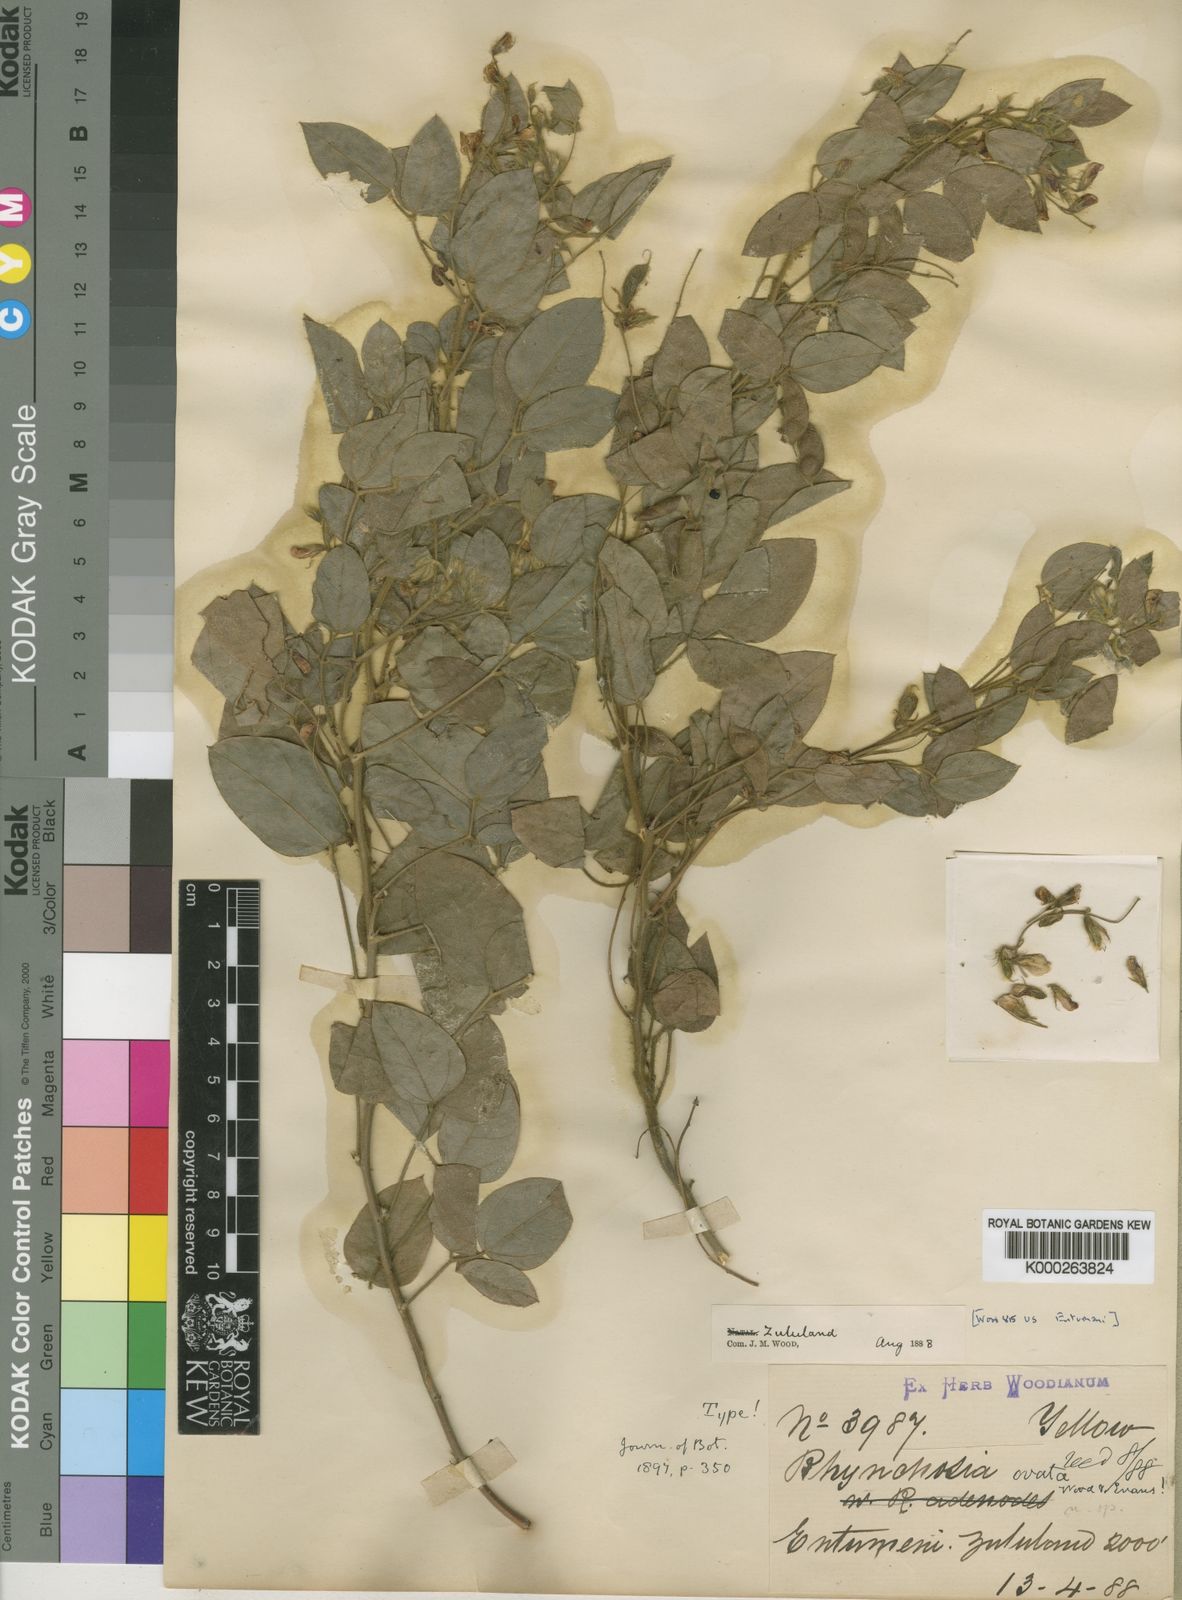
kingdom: Plantae
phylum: Tracheophyta
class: Magnoliopsida
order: Fabales
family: Fabaceae
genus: Rhynchosia
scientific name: Rhynchosia ovata
